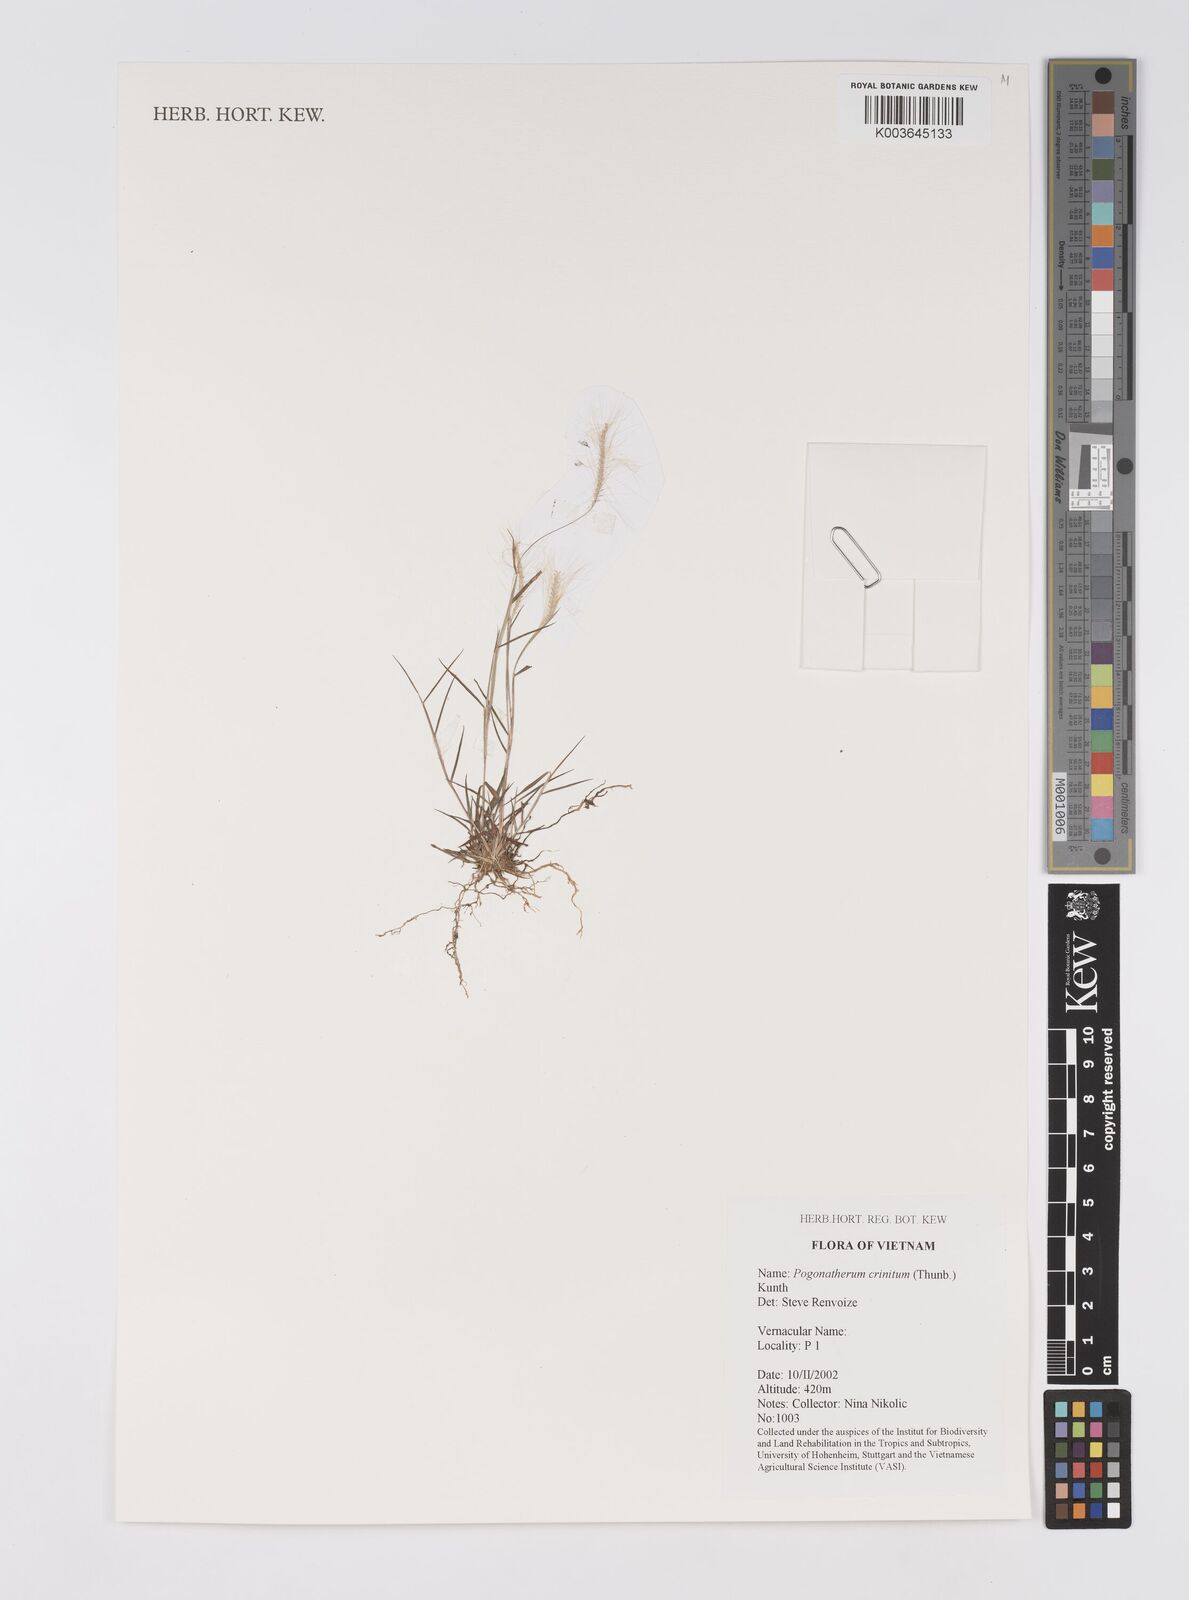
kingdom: Plantae
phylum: Tracheophyta
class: Liliopsida
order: Poales
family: Poaceae
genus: Pogonatherum
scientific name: Pogonatherum crinitum
